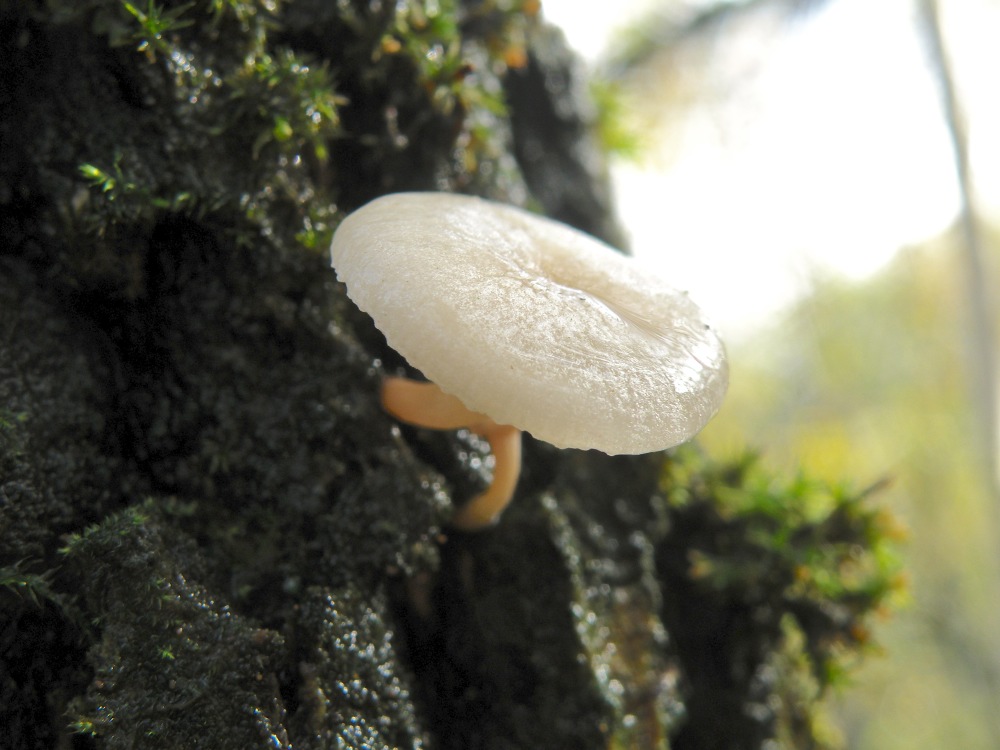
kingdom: Fungi
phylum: Basidiomycota
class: Agaricomycetes
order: Agaricales
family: Tricholomataceae
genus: Clitocybe
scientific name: Clitocybe rivulosa
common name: eng-tragthat
